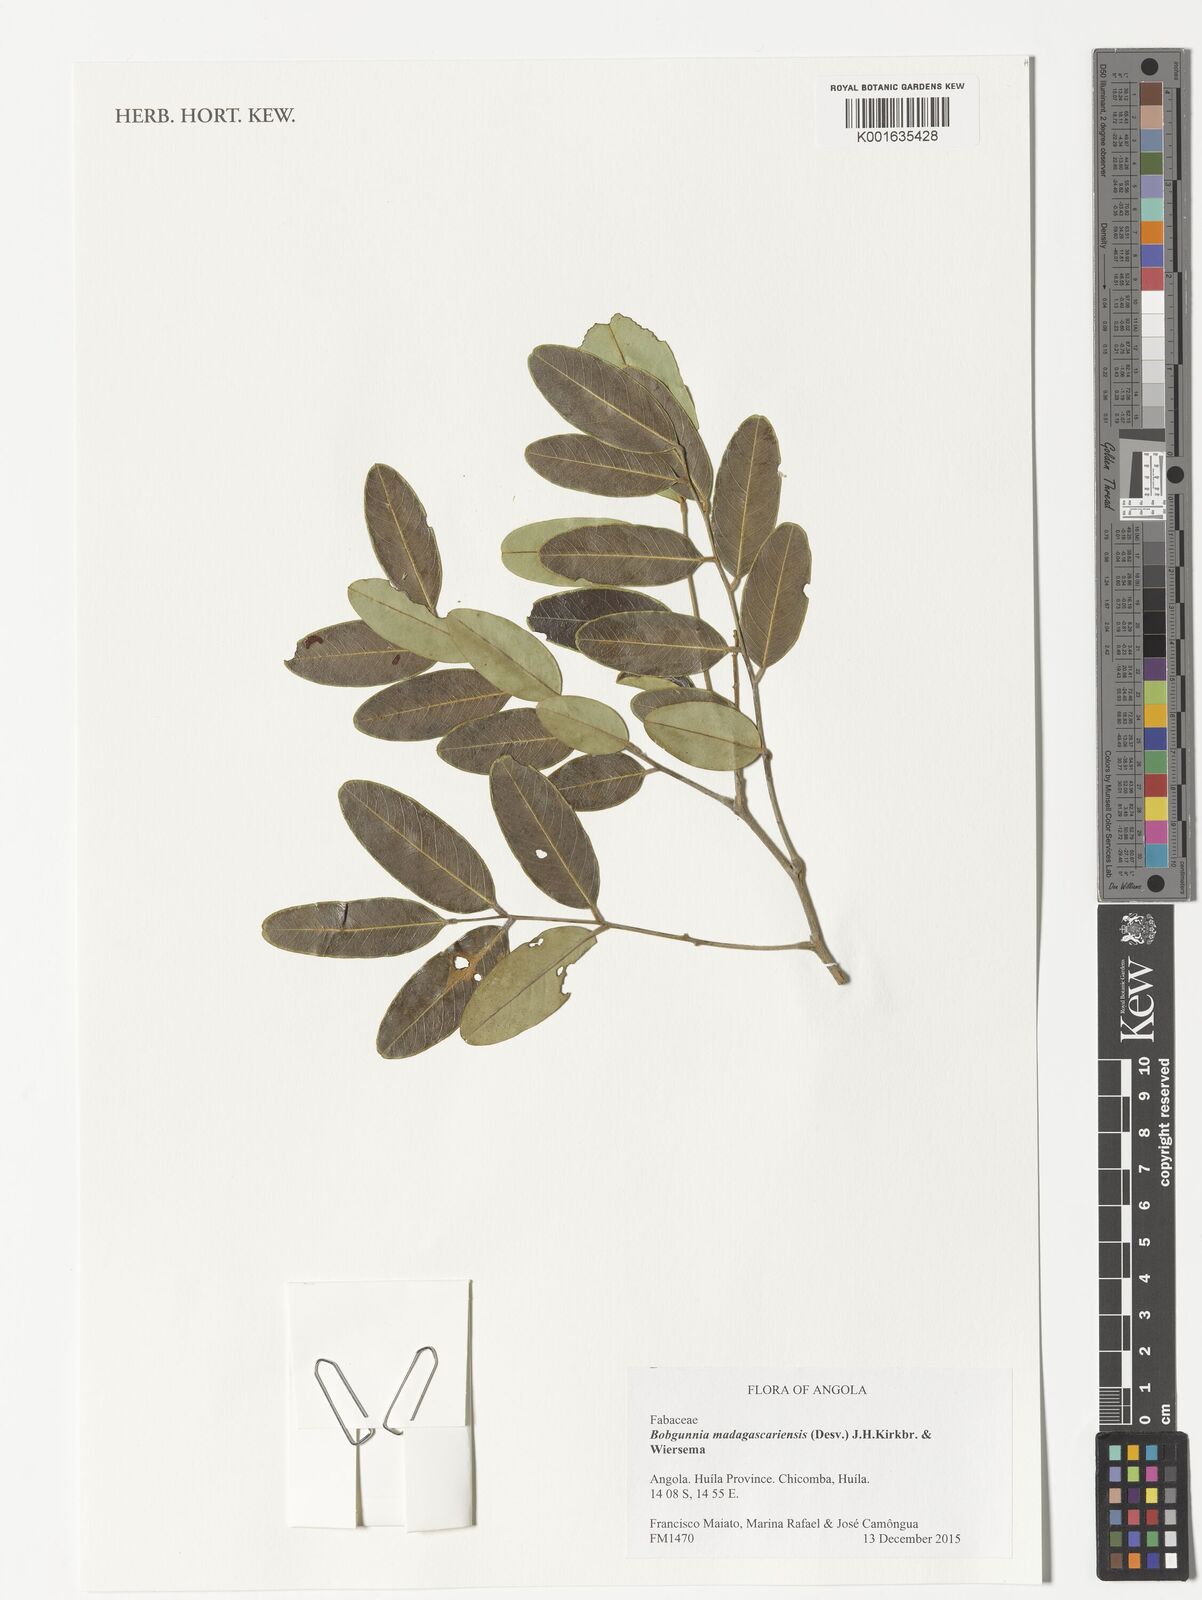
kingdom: Plantae
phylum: Tracheophyta
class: Magnoliopsida
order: Fabales
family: Fabaceae
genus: Bobgunnia
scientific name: Bobgunnia madagascariensis
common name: Snake bean plant
